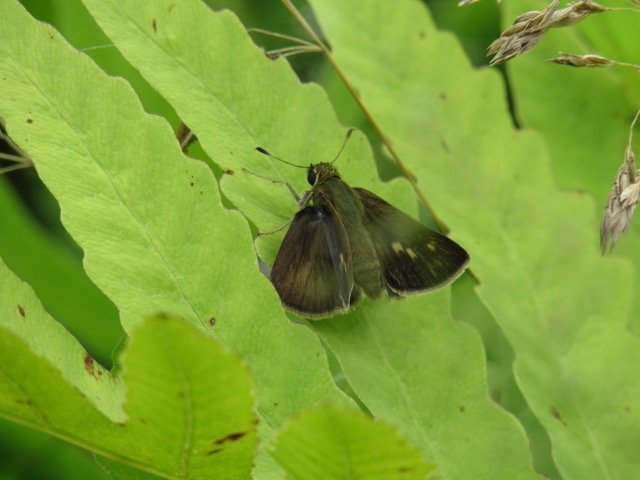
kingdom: Animalia
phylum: Arthropoda
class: Insecta
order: Lepidoptera
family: Hesperiidae
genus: Polites
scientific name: Polites egeremet
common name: Northern Broken-Dash
